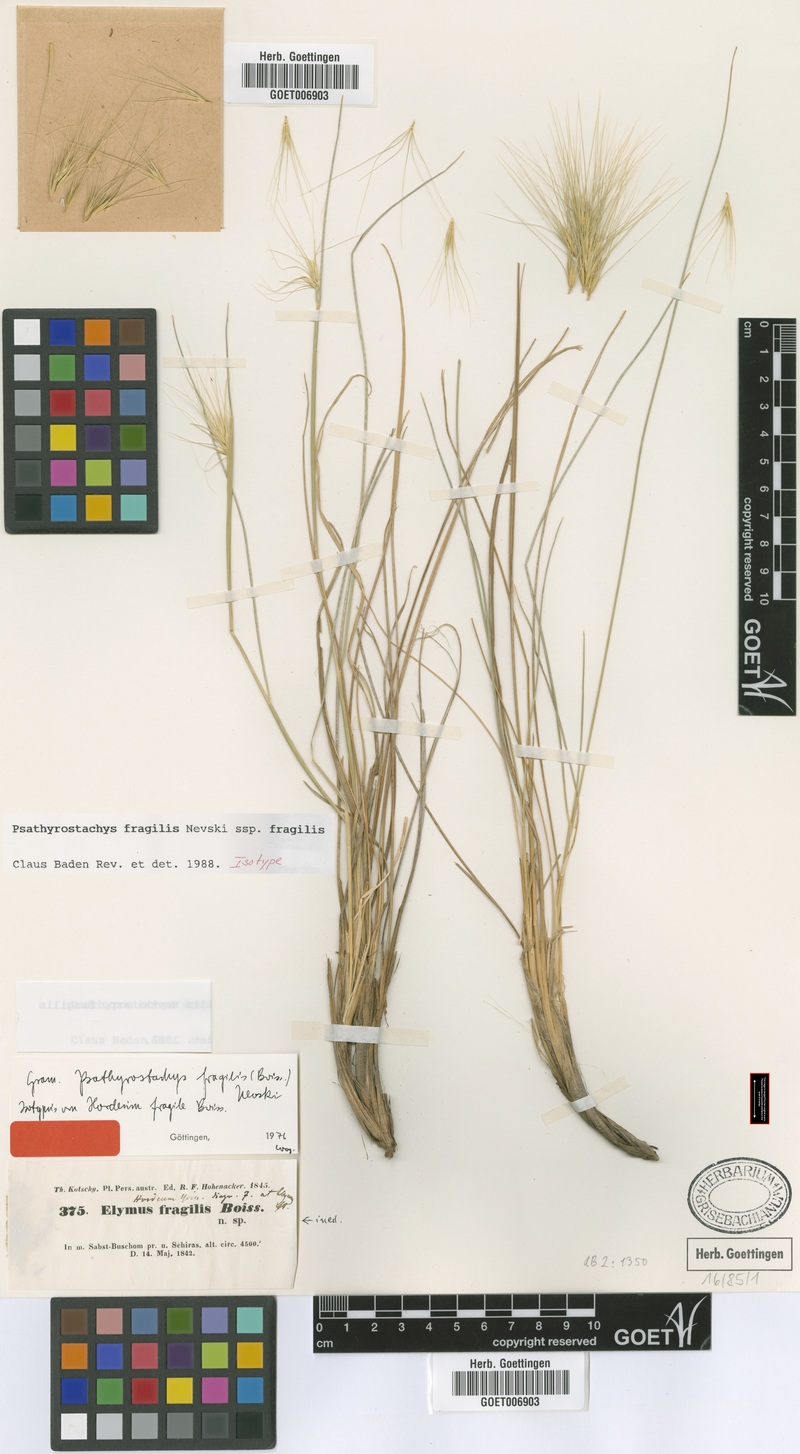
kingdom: Plantae
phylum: Tracheophyta
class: Liliopsida
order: Poales
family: Poaceae
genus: Psathyrostachys
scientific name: Psathyrostachys fragilis
